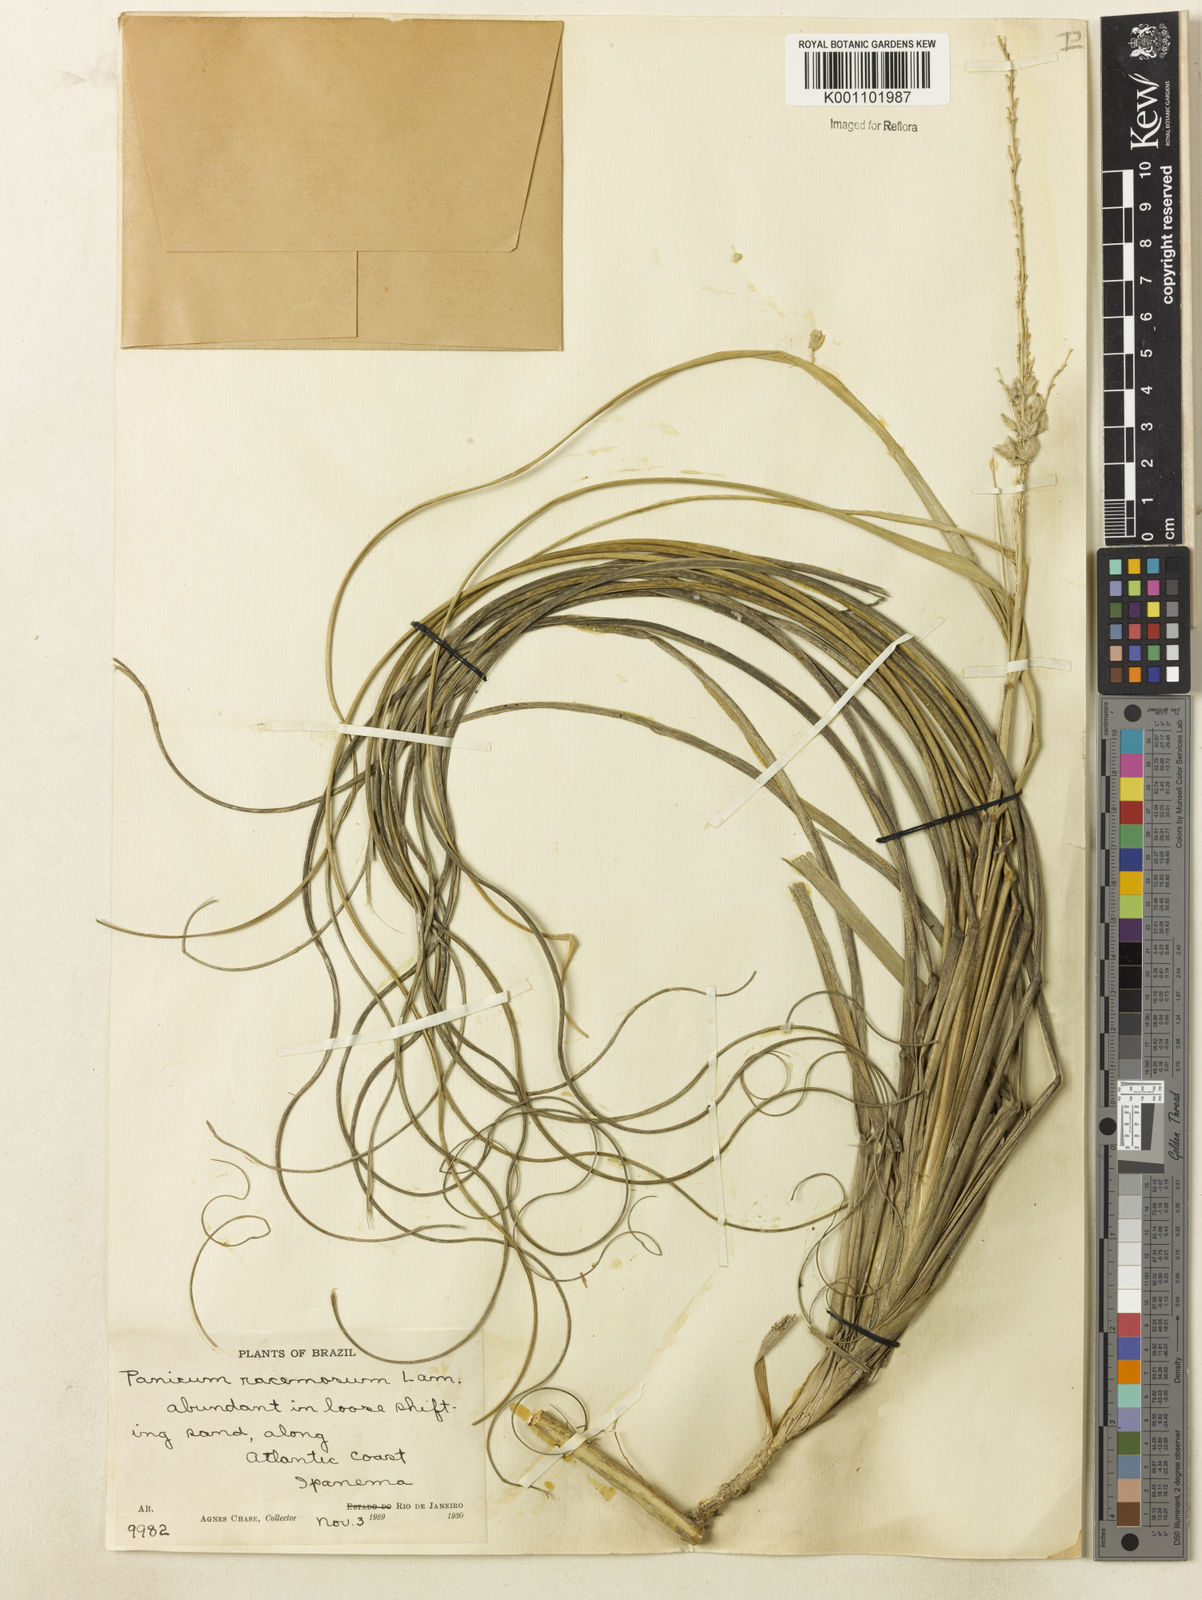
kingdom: Plantae
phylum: Tracheophyta
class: Liliopsida
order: Poales
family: Poaceae
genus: Panicum
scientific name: Panicum racemosum
